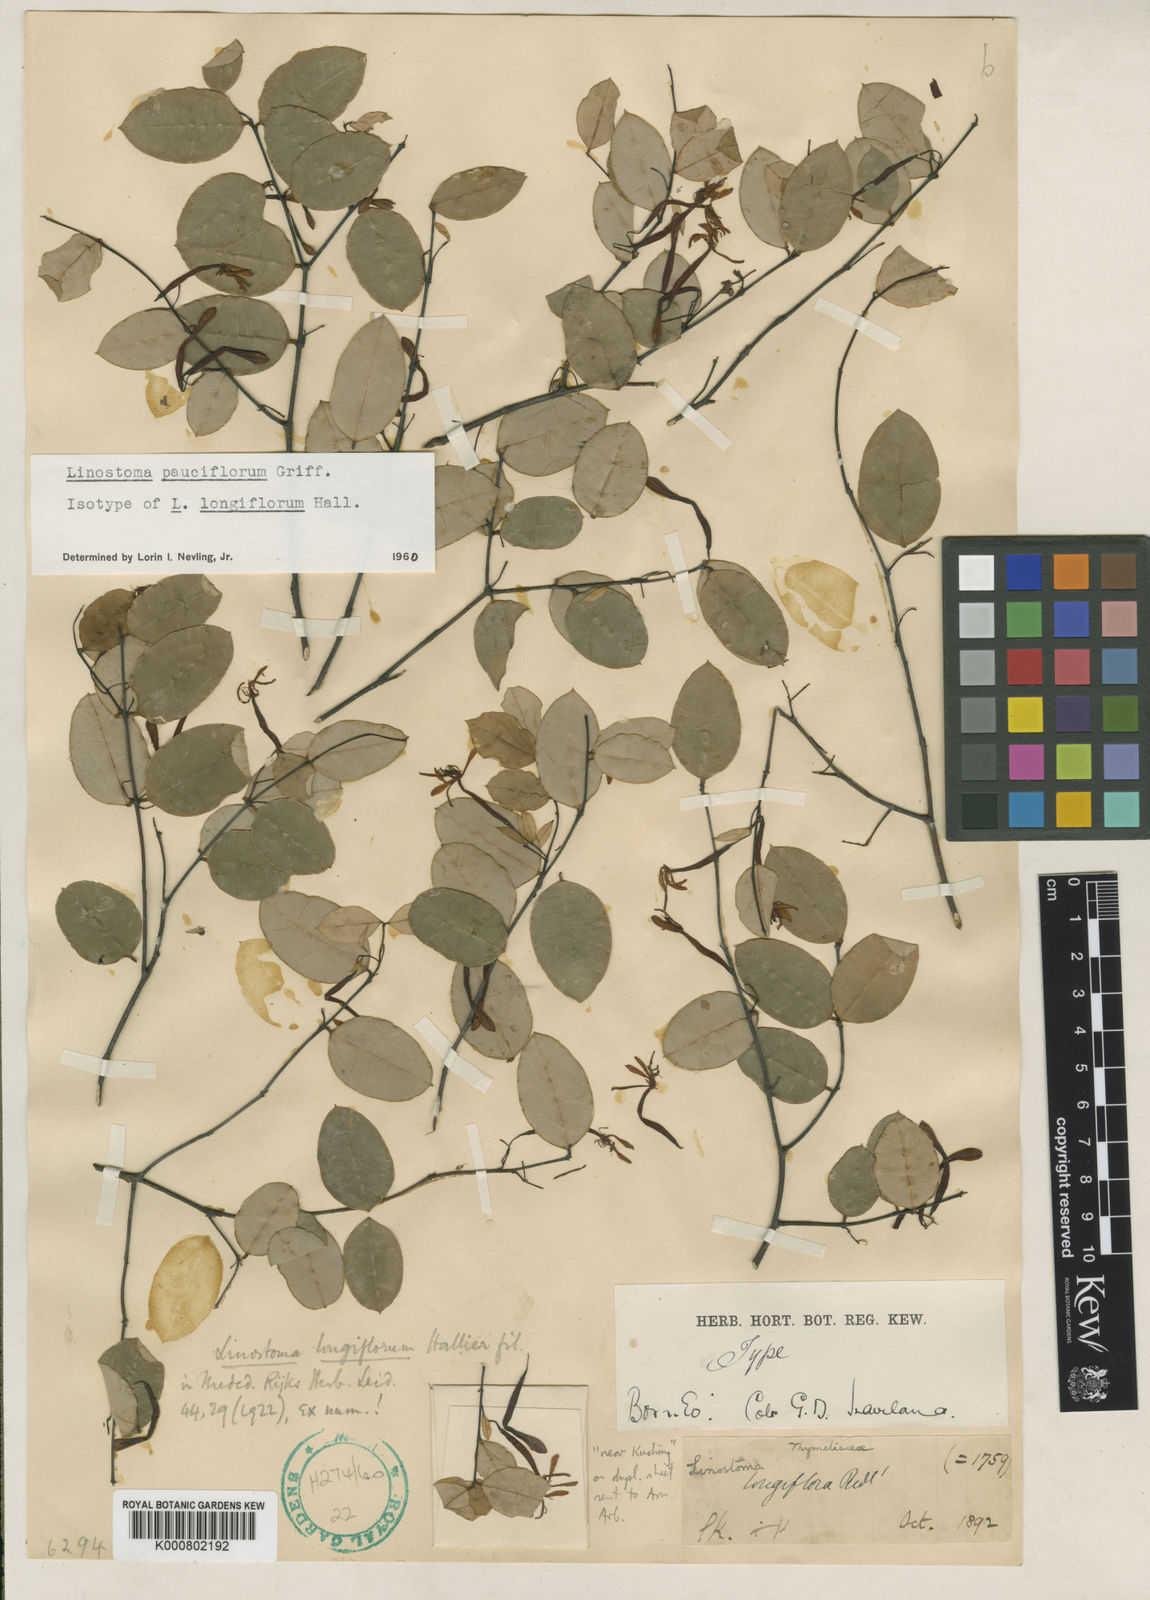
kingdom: Plantae
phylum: Tracheophyta
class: Magnoliopsida
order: Malvales
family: Thymelaeaceae
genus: Linostoma
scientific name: Linostoma longiflorum
